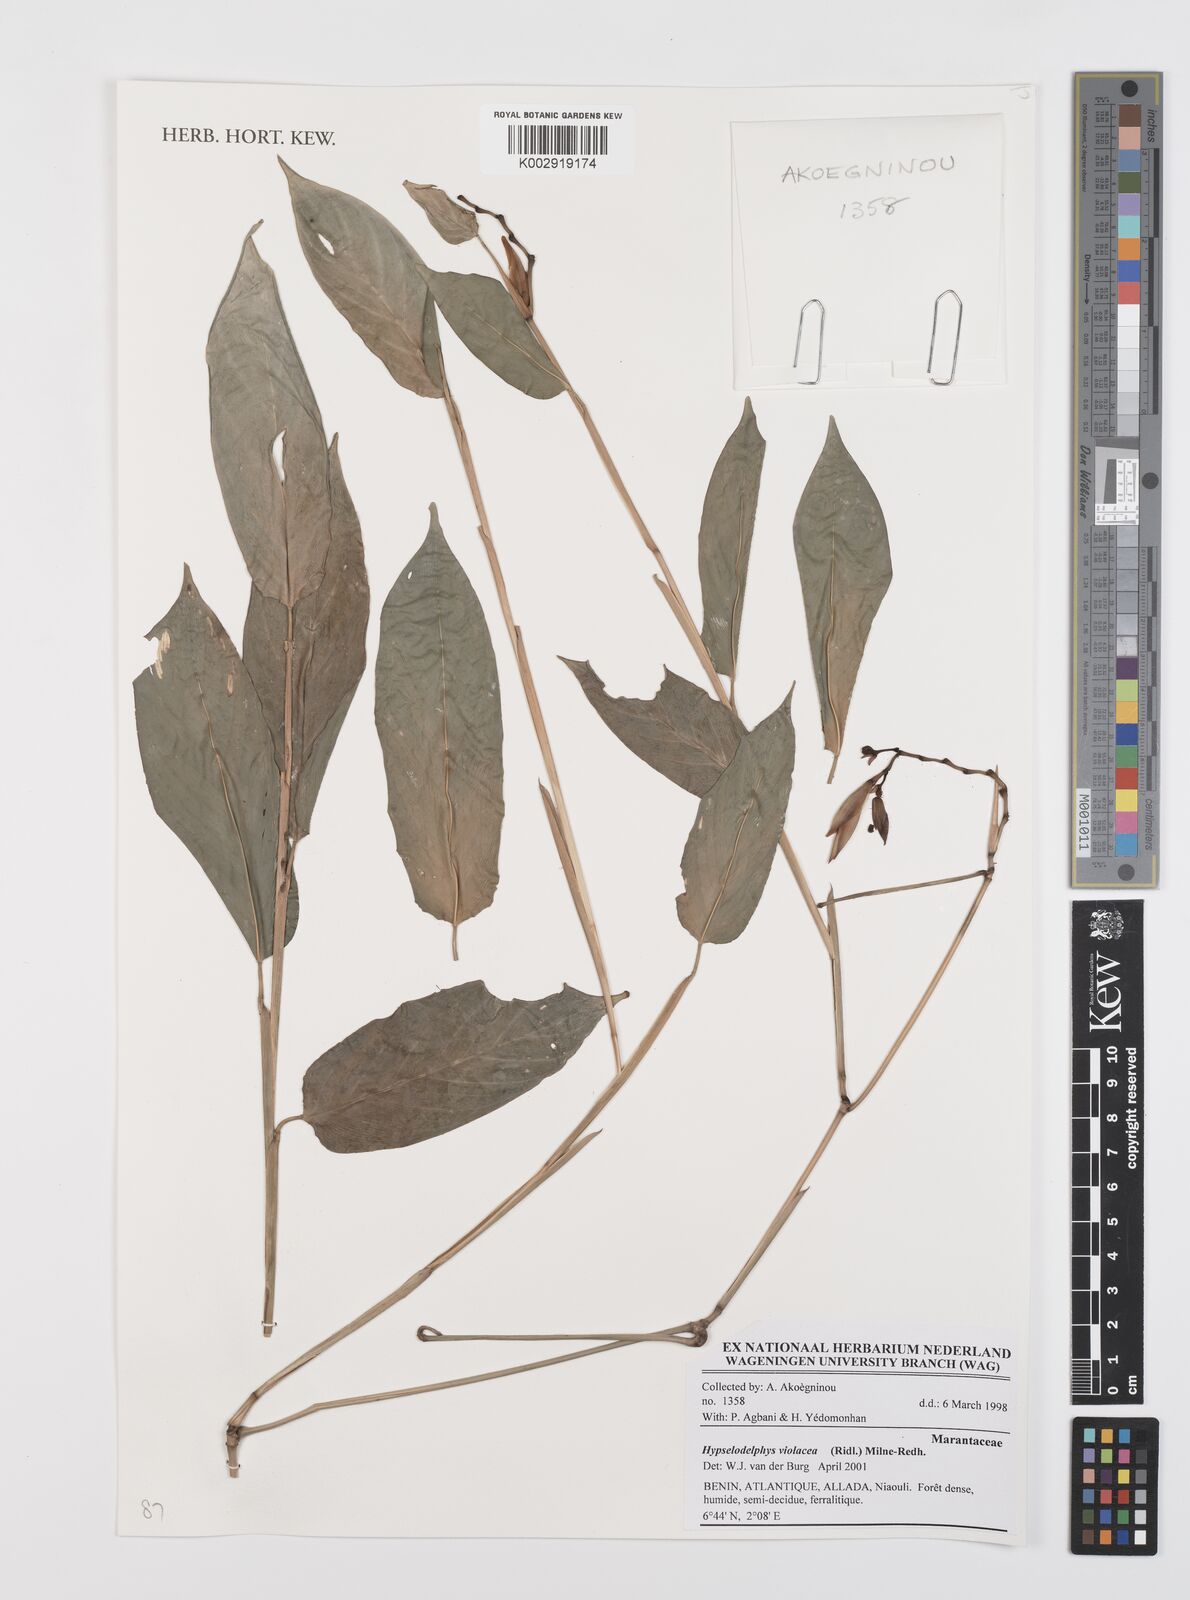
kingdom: Plantae
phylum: Tracheophyta
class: Liliopsida
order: Zingiberales
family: Marantaceae
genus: Hypselodelphys
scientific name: Hypselodelphys violacea
